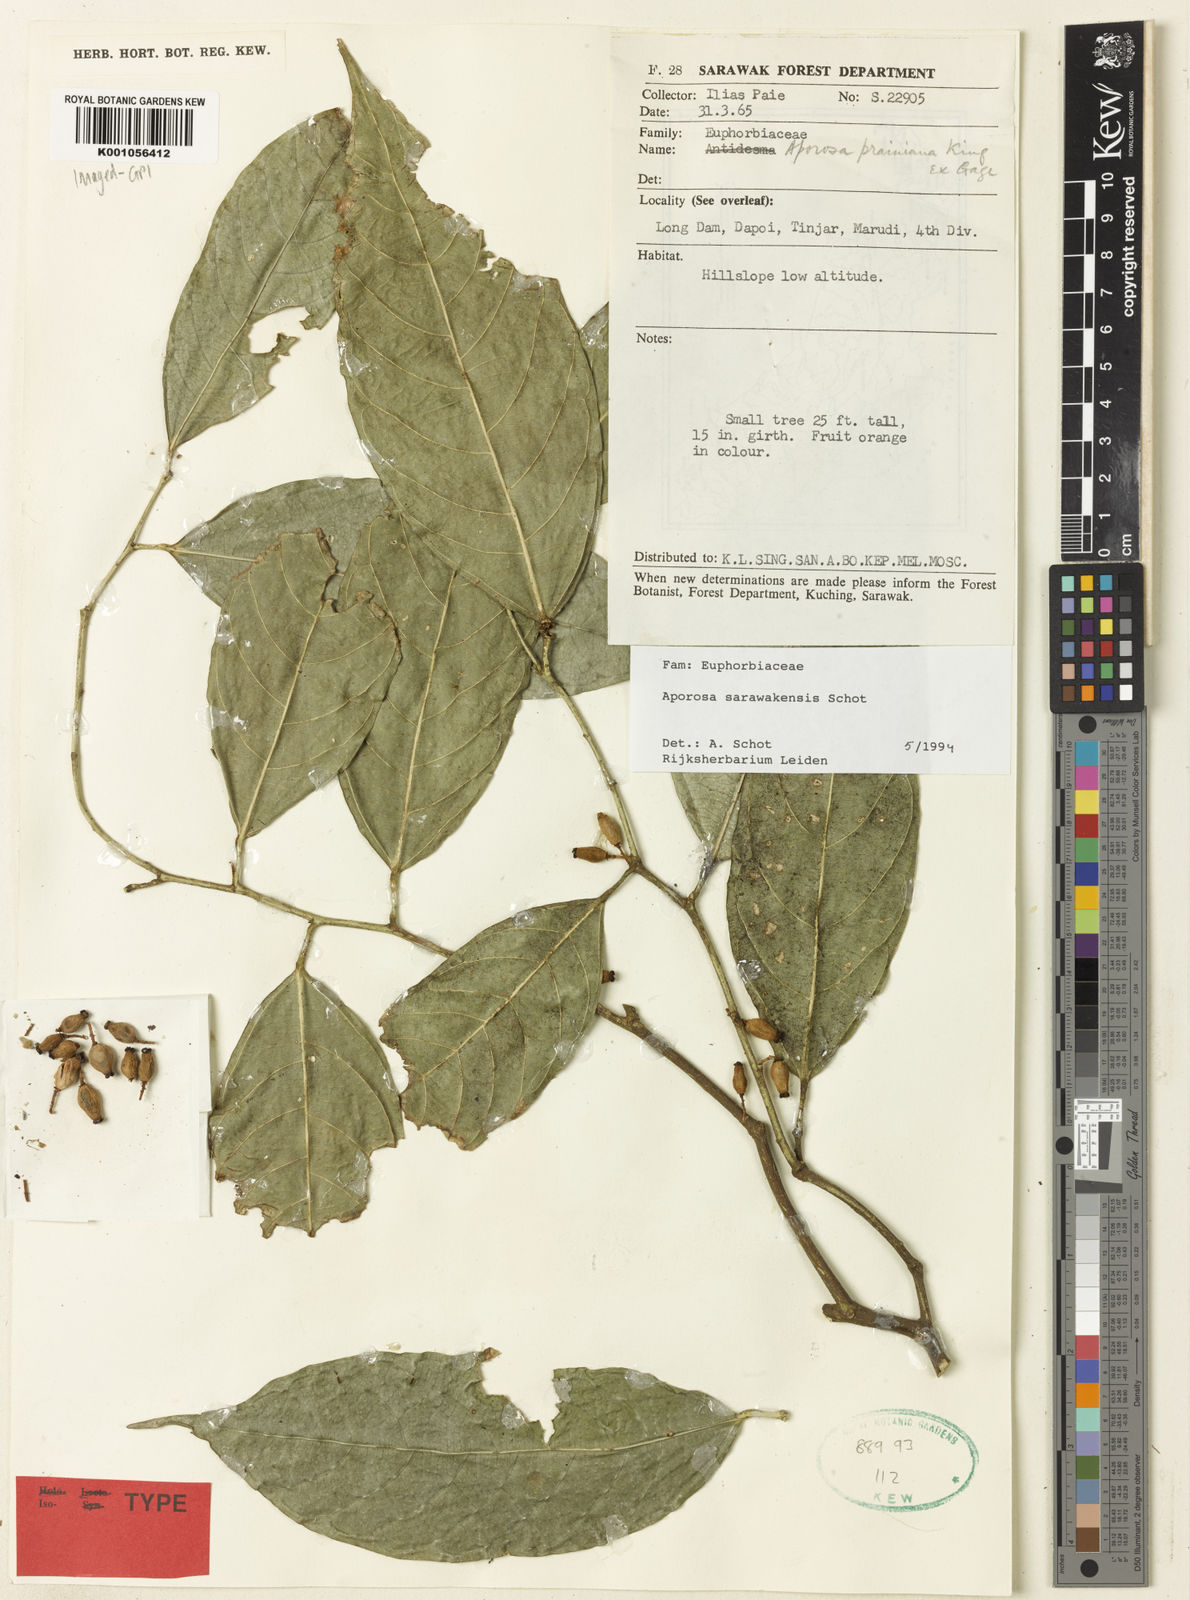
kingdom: Plantae
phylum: Tracheophyta
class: Magnoliopsida
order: Malpighiales
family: Phyllanthaceae
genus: Aporosa
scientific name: Aporosa sarawakensis
